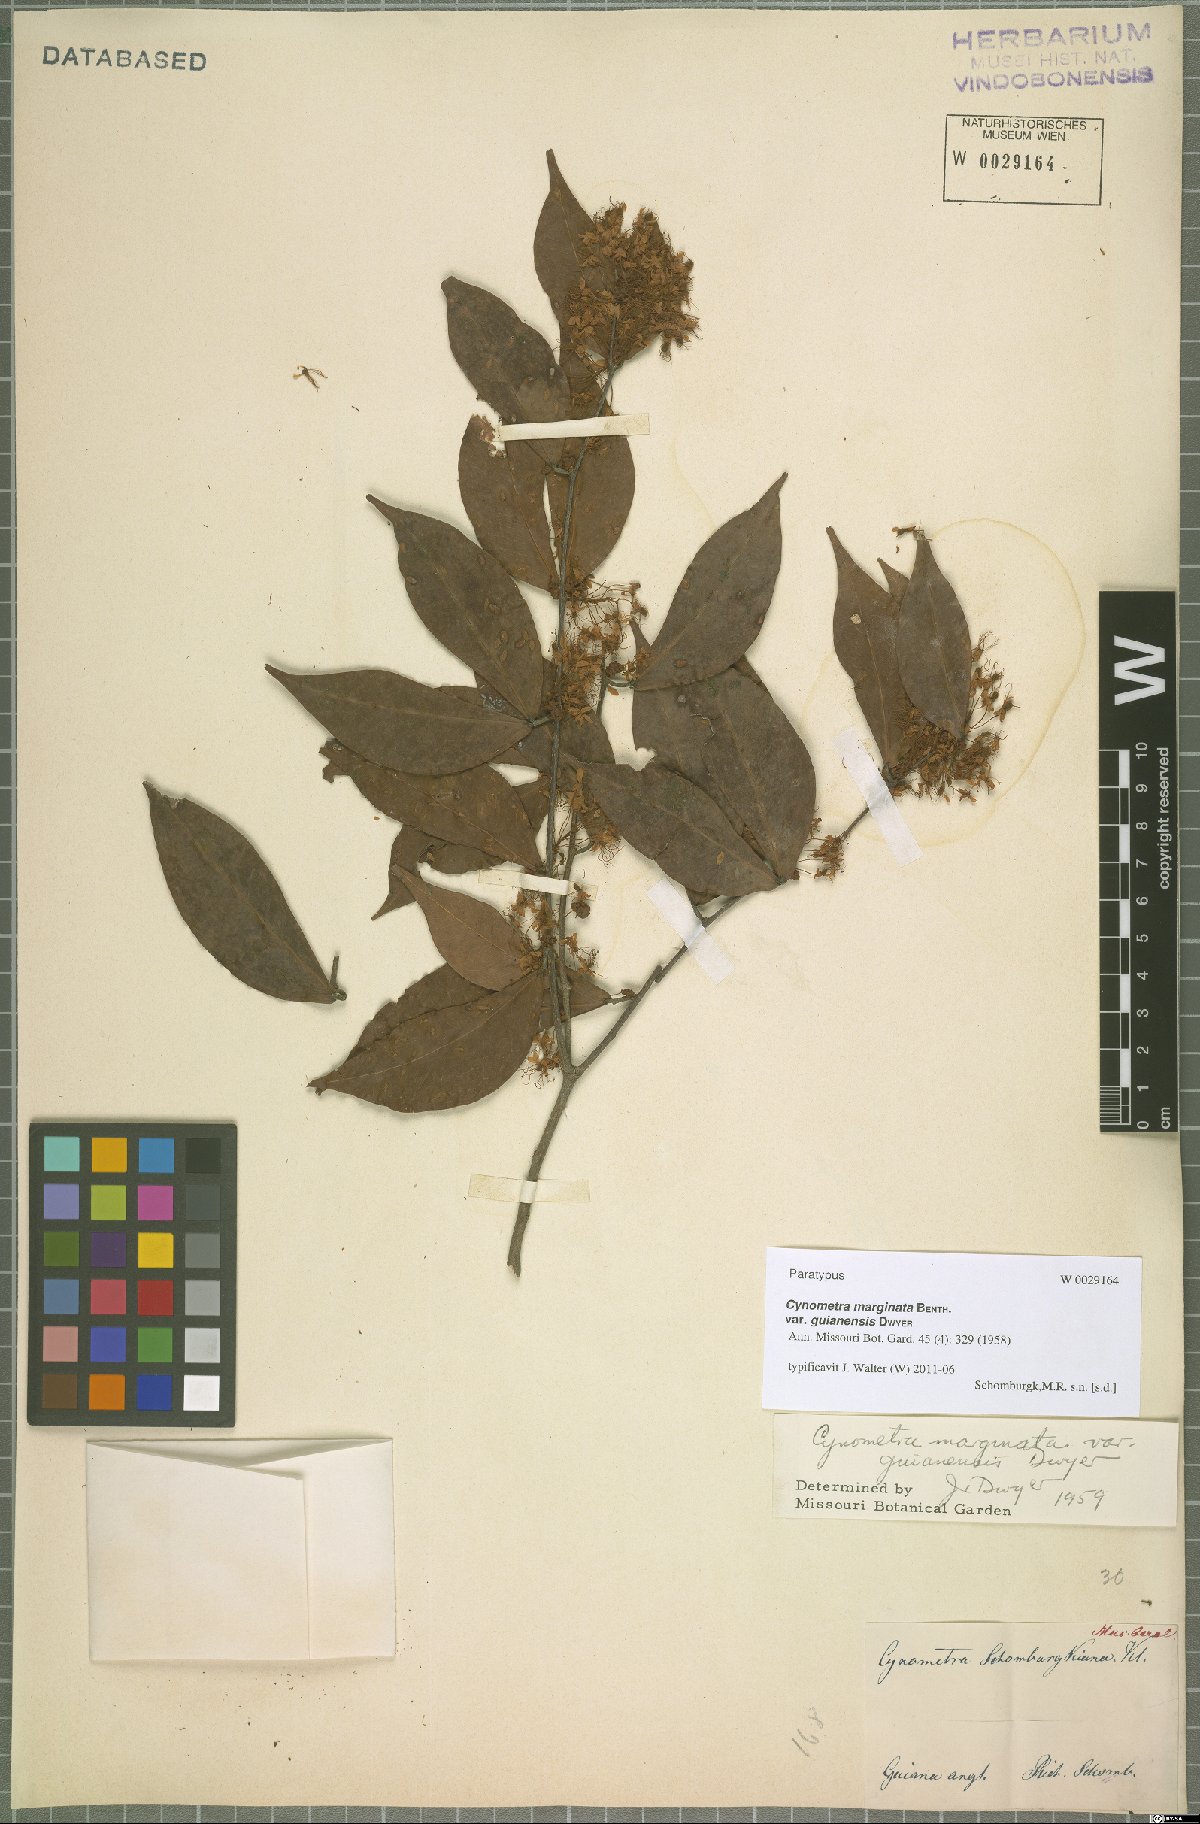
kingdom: Plantae
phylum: Tracheophyta
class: Magnoliopsida
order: Fabales
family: Fabaceae
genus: Cynometra
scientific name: Cynometra marginata
